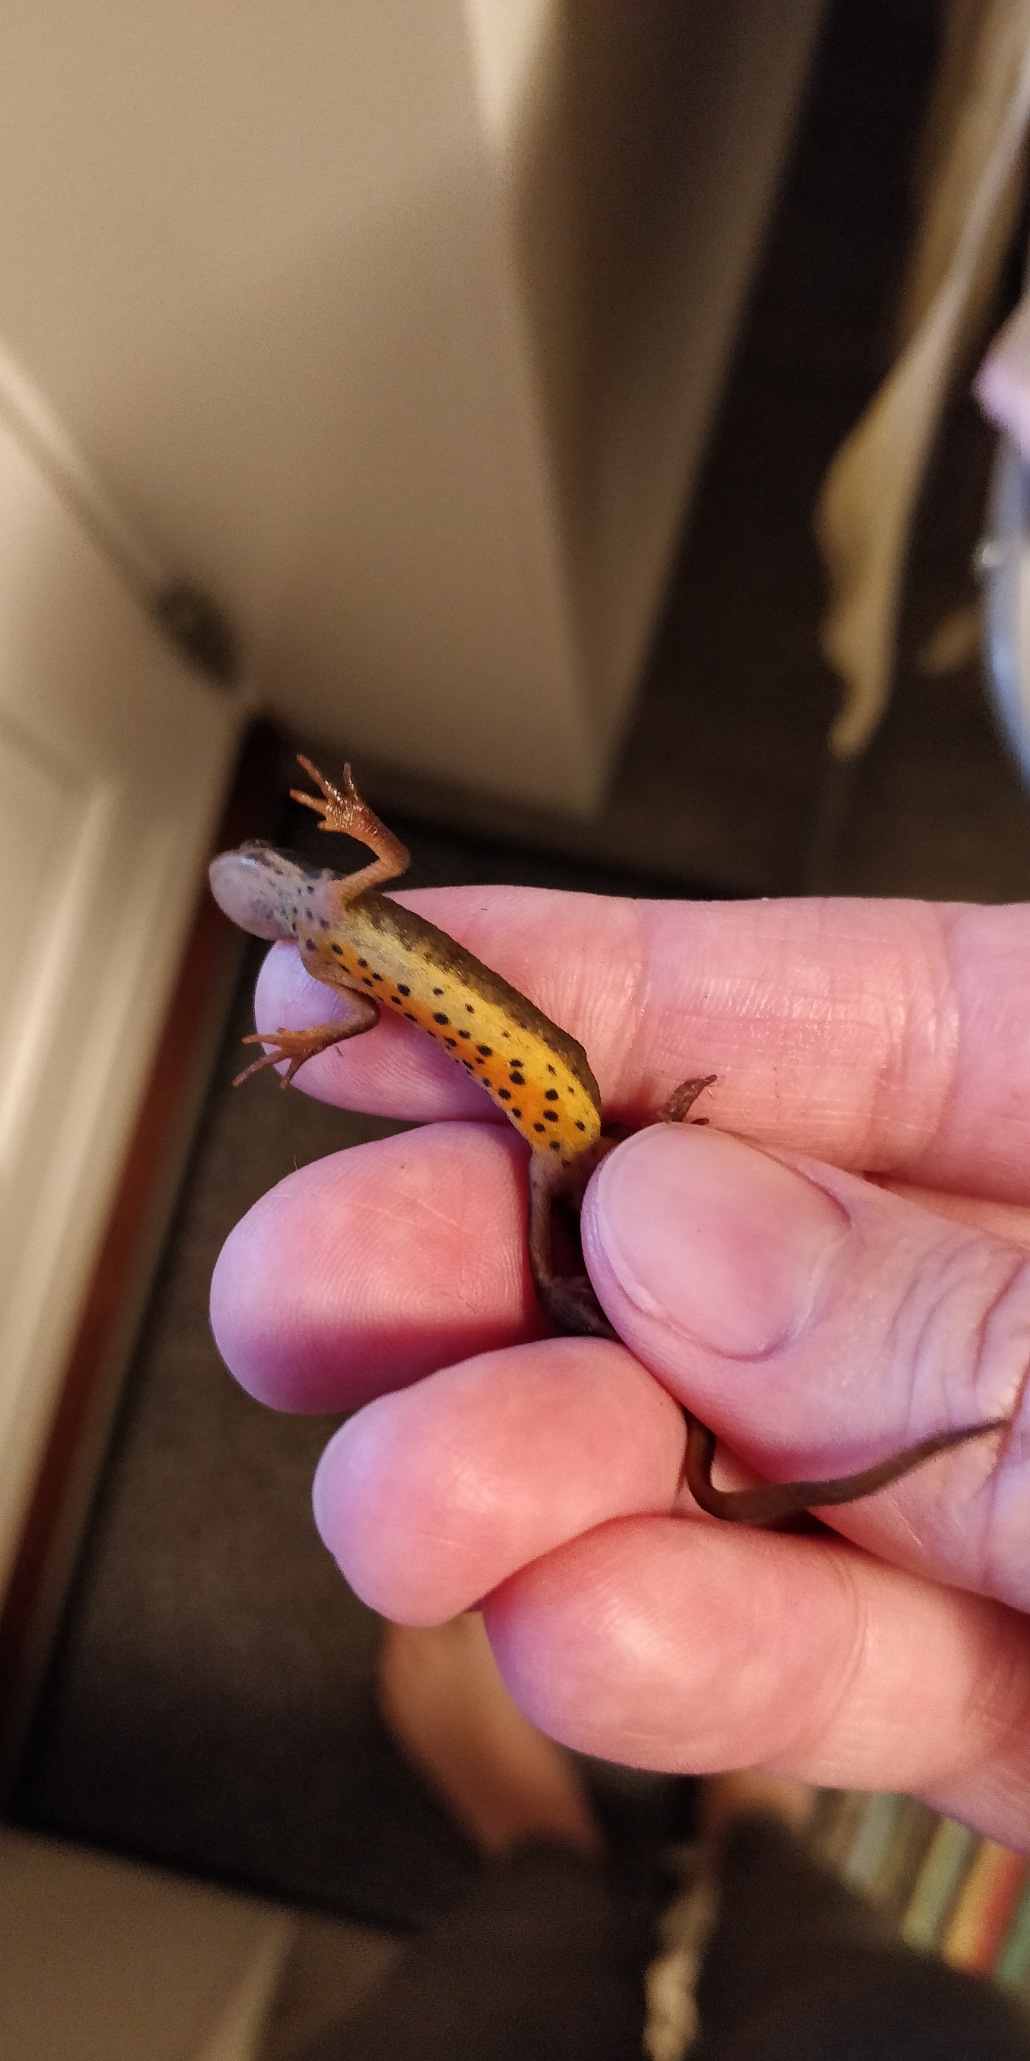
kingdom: Animalia
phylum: Chordata
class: Amphibia
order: Caudata
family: Salamandridae
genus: Lissotriton
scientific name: Lissotriton vulgaris
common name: Lille vandsalamander
